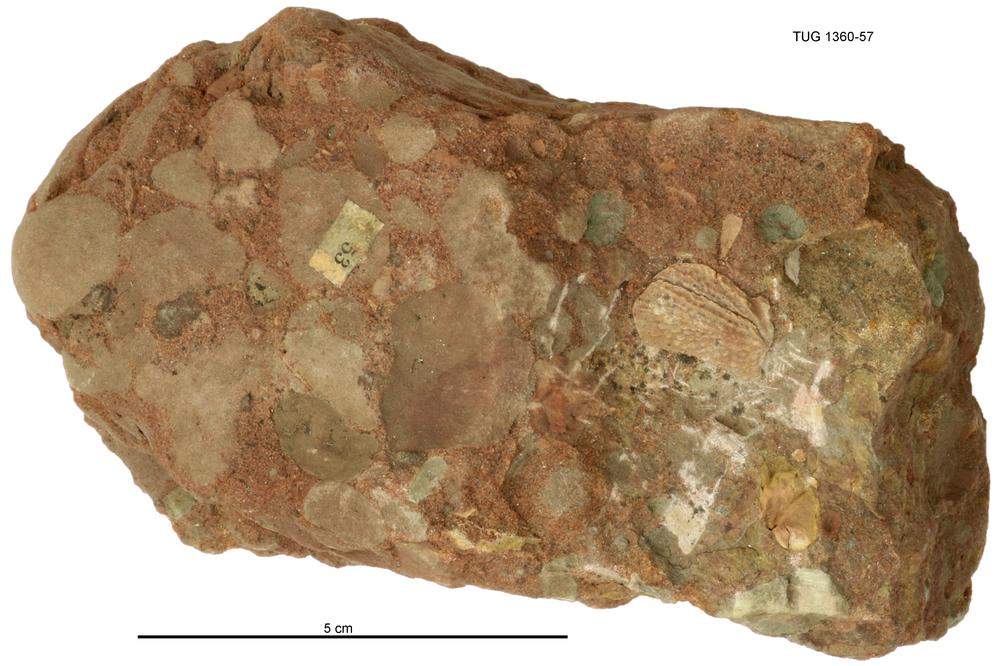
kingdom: Animalia
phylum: Chordata
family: Asterolepididae
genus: Asterolepis
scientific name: Asterolepis estonica
